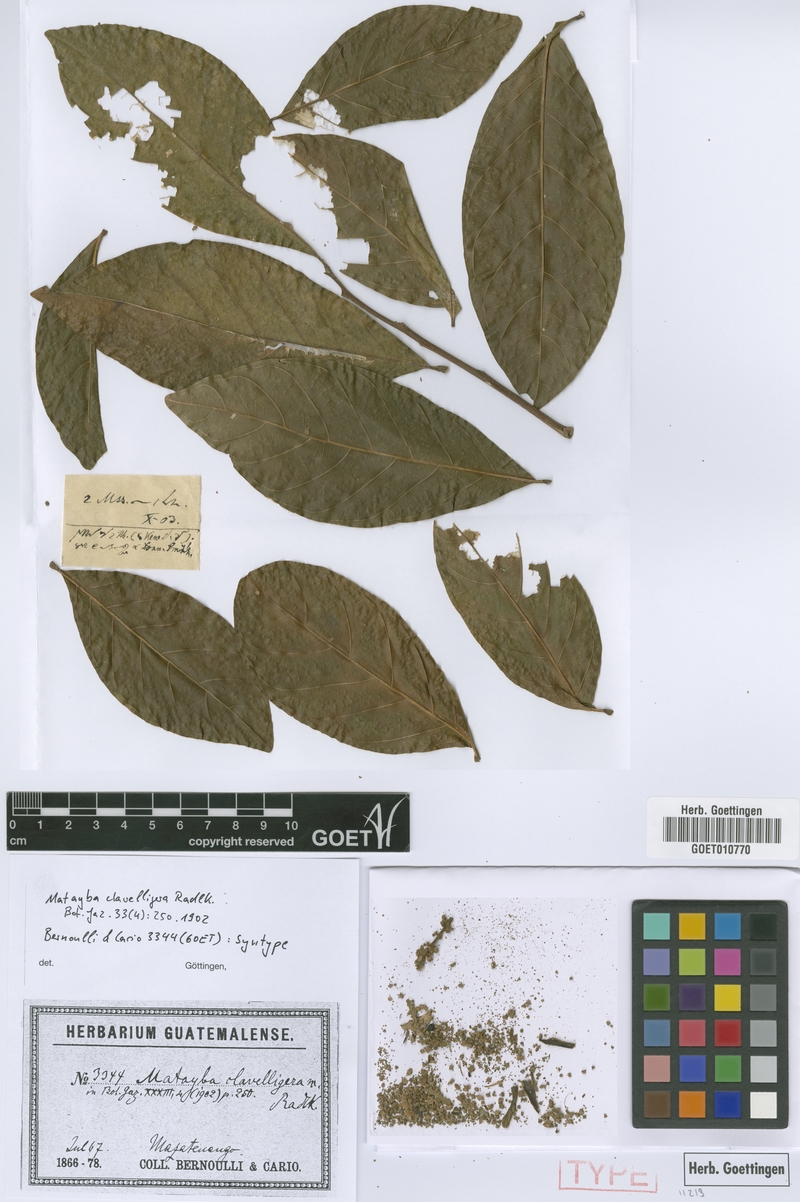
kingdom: Plantae
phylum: Tracheophyta
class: Magnoliopsida
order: Sapindales
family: Sapindaceae
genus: Matayba
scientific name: Matayba clavelligera
